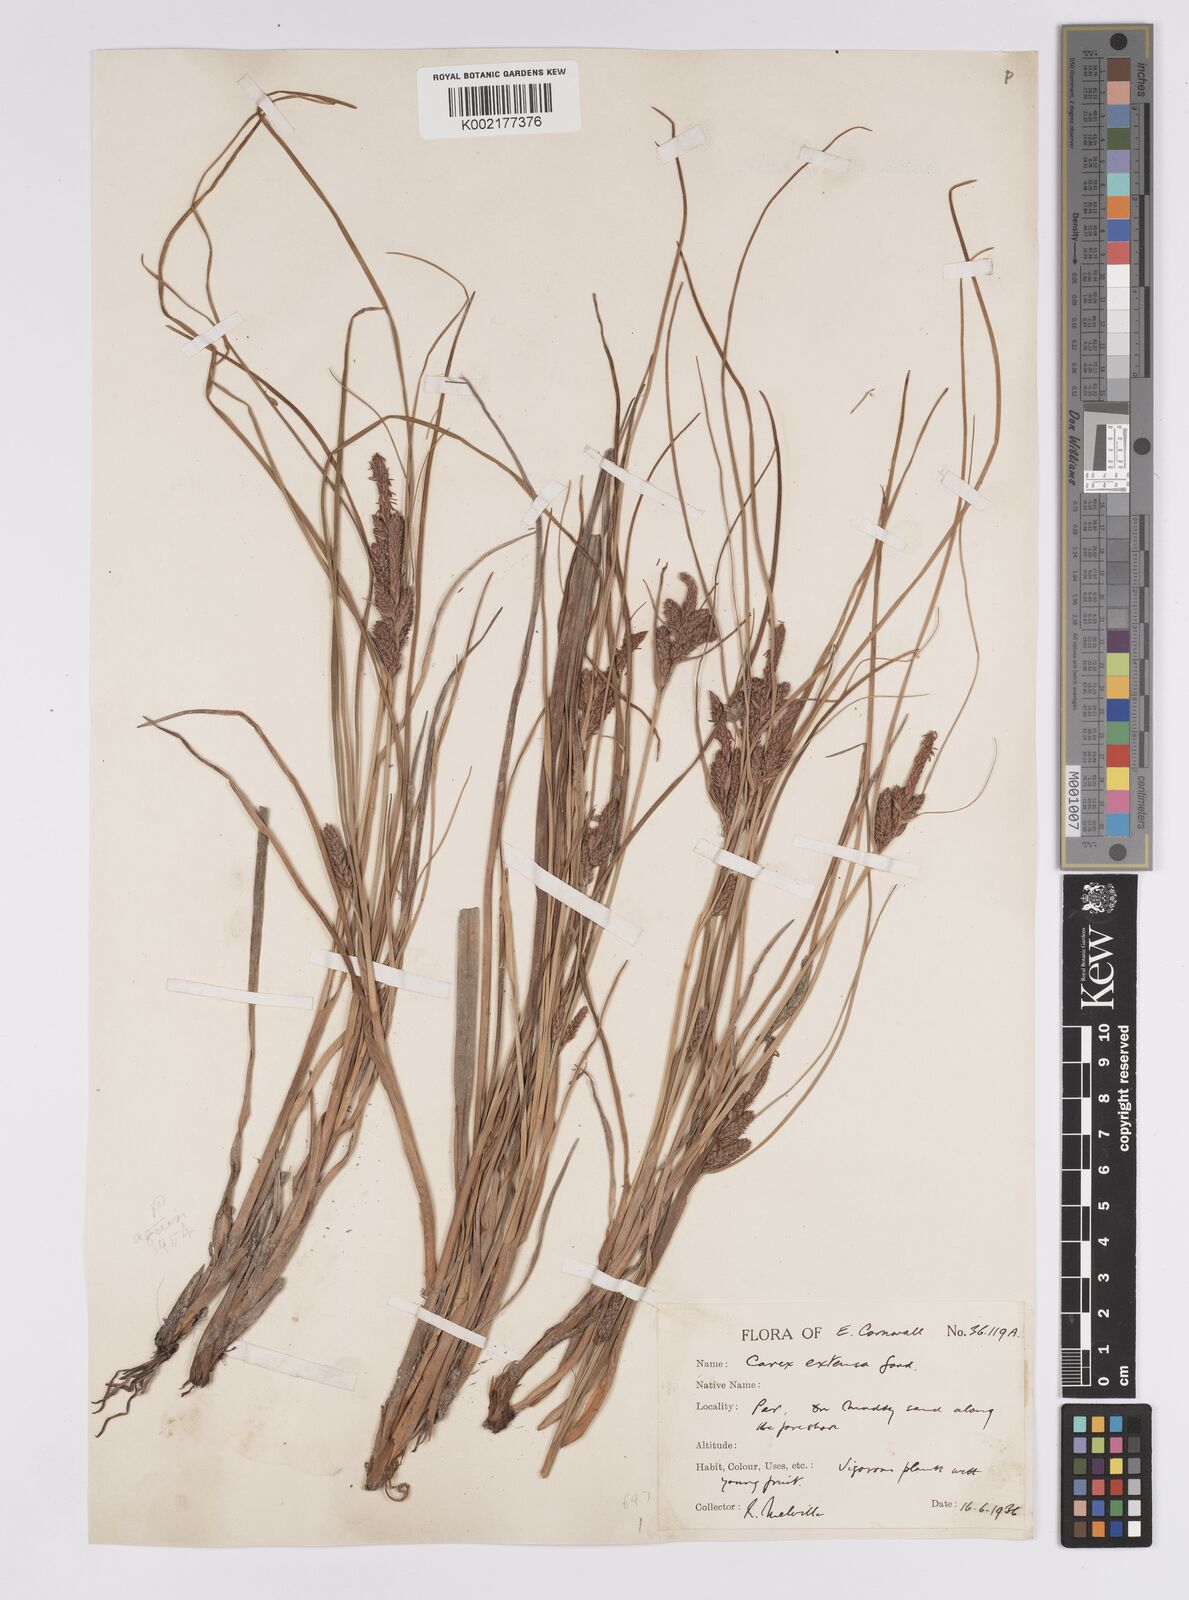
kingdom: Plantae
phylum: Tracheophyta
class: Liliopsida
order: Poales
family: Cyperaceae
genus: Carex
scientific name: Carex extensa
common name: Long-bracted sedge
